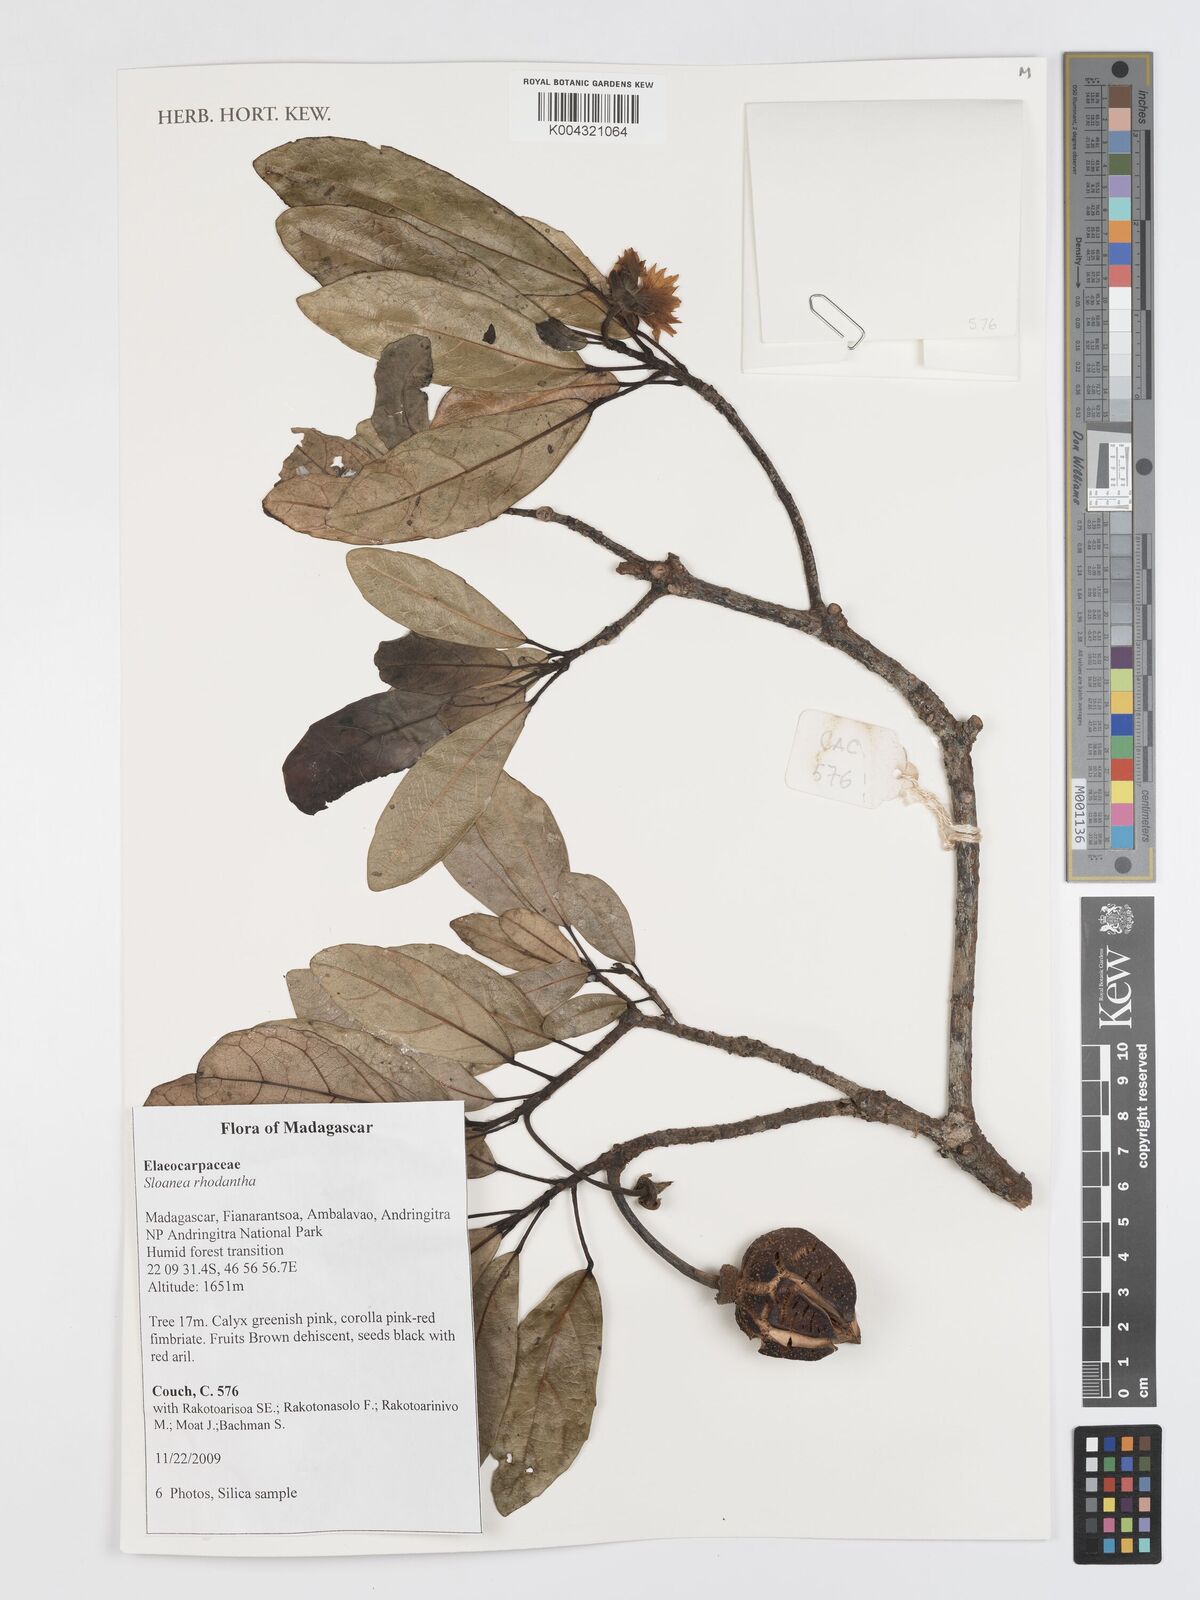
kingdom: Plantae
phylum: Tracheophyta
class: Magnoliopsida
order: Oxalidales
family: Elaeocarpaceae
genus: Sloanea
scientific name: Sloanea rhodantha
